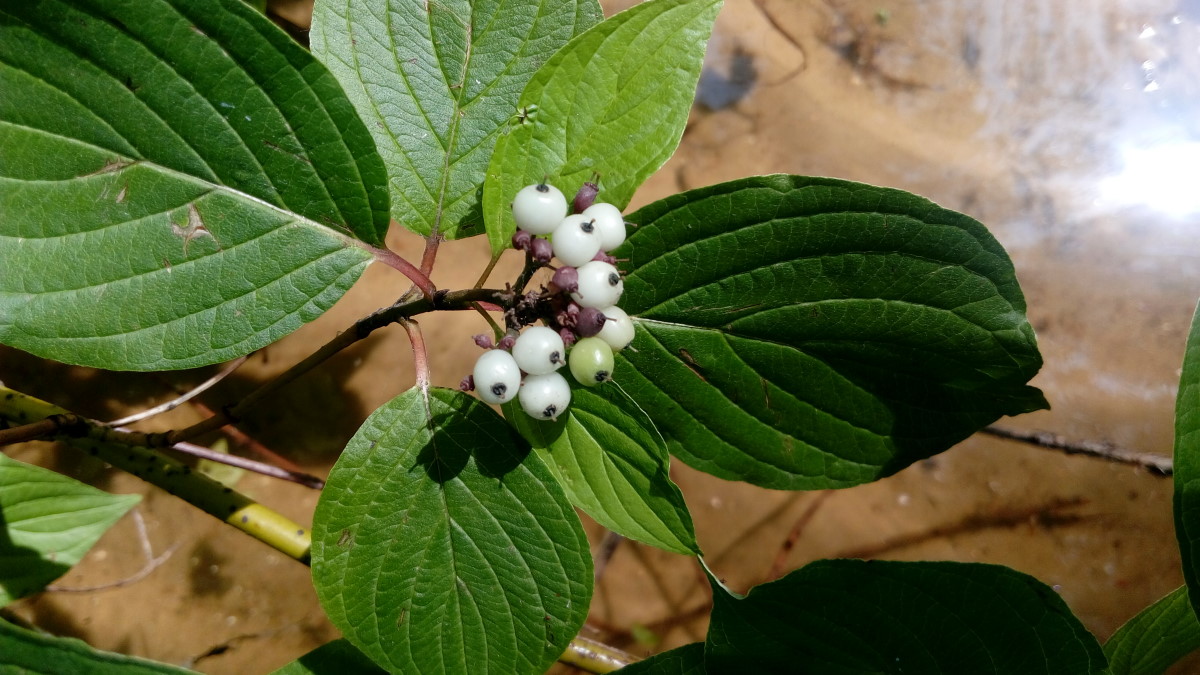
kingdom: Plantae
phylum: Tracheophyta
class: Magnoliopsida
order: Cornales
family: Cornaceae
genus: Cornus
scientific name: Cornus alba
